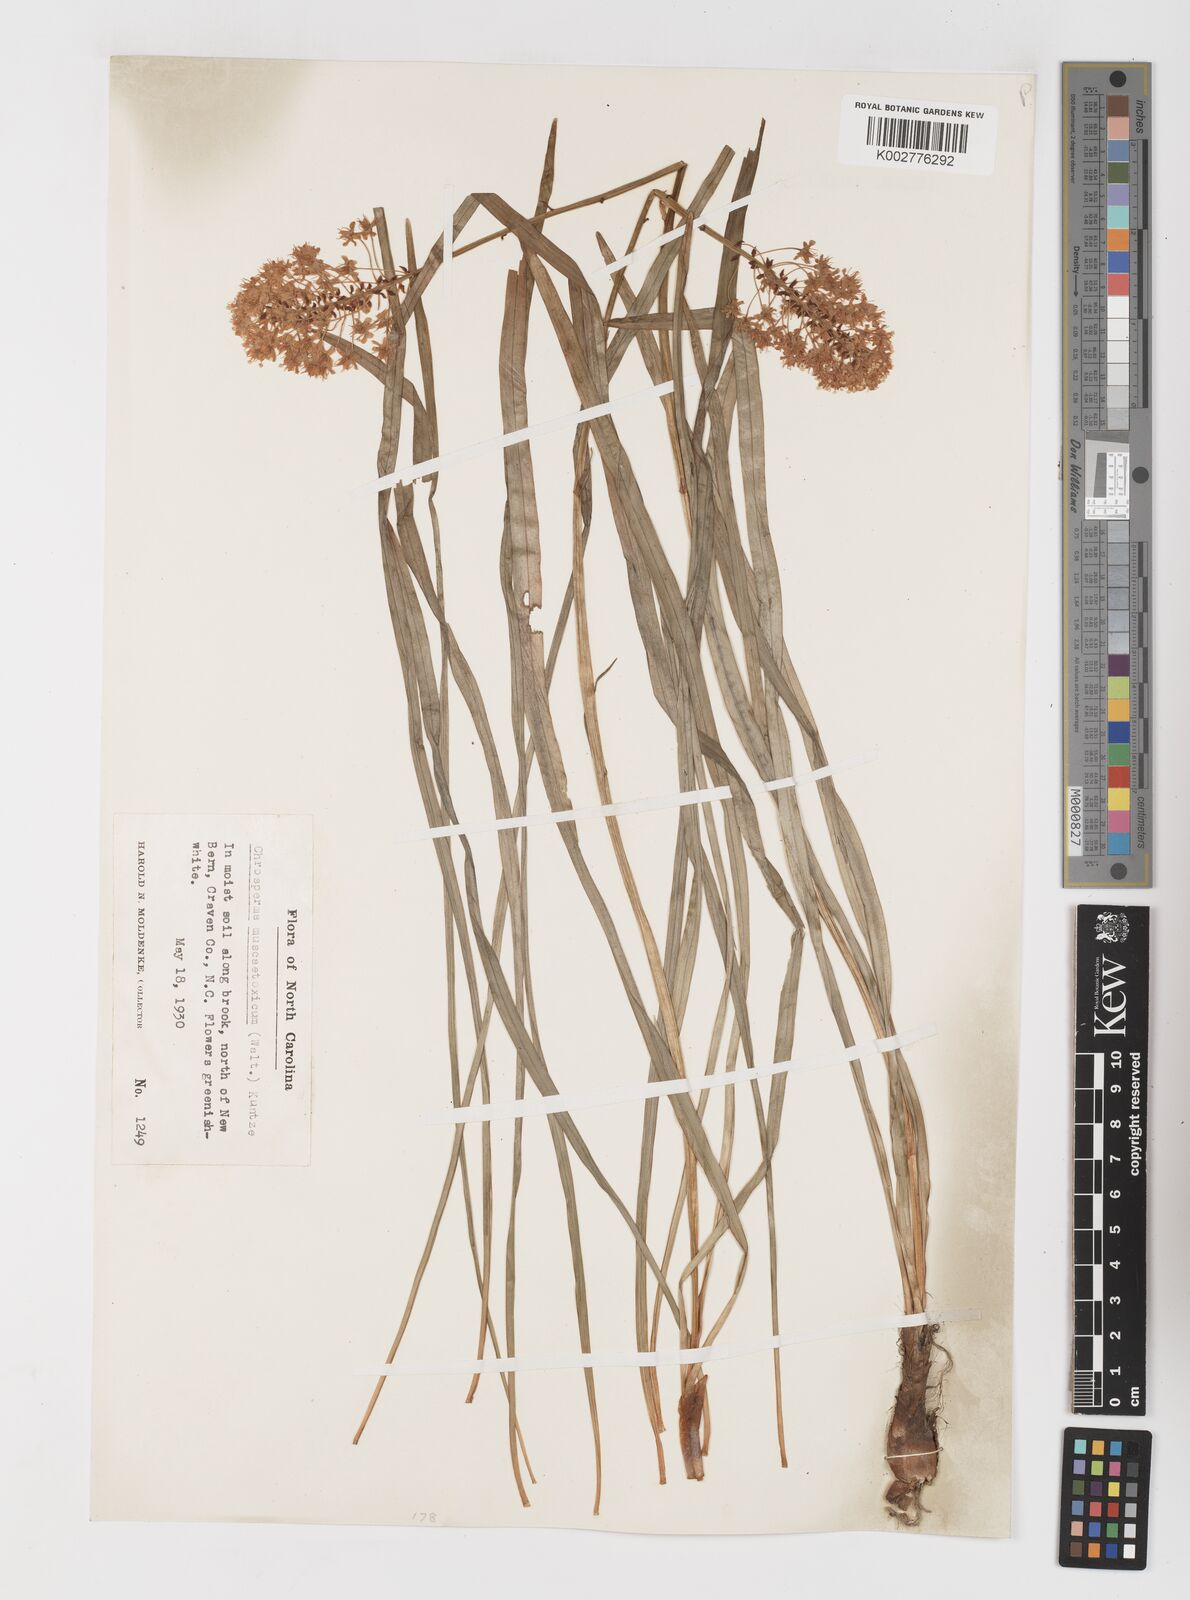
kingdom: Plantae
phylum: Tracheophyta
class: Liliopsida
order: Liliales
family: Melanthiaceae
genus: Amianthium
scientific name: Amianthium muscitoxicum
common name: Fly-poison
